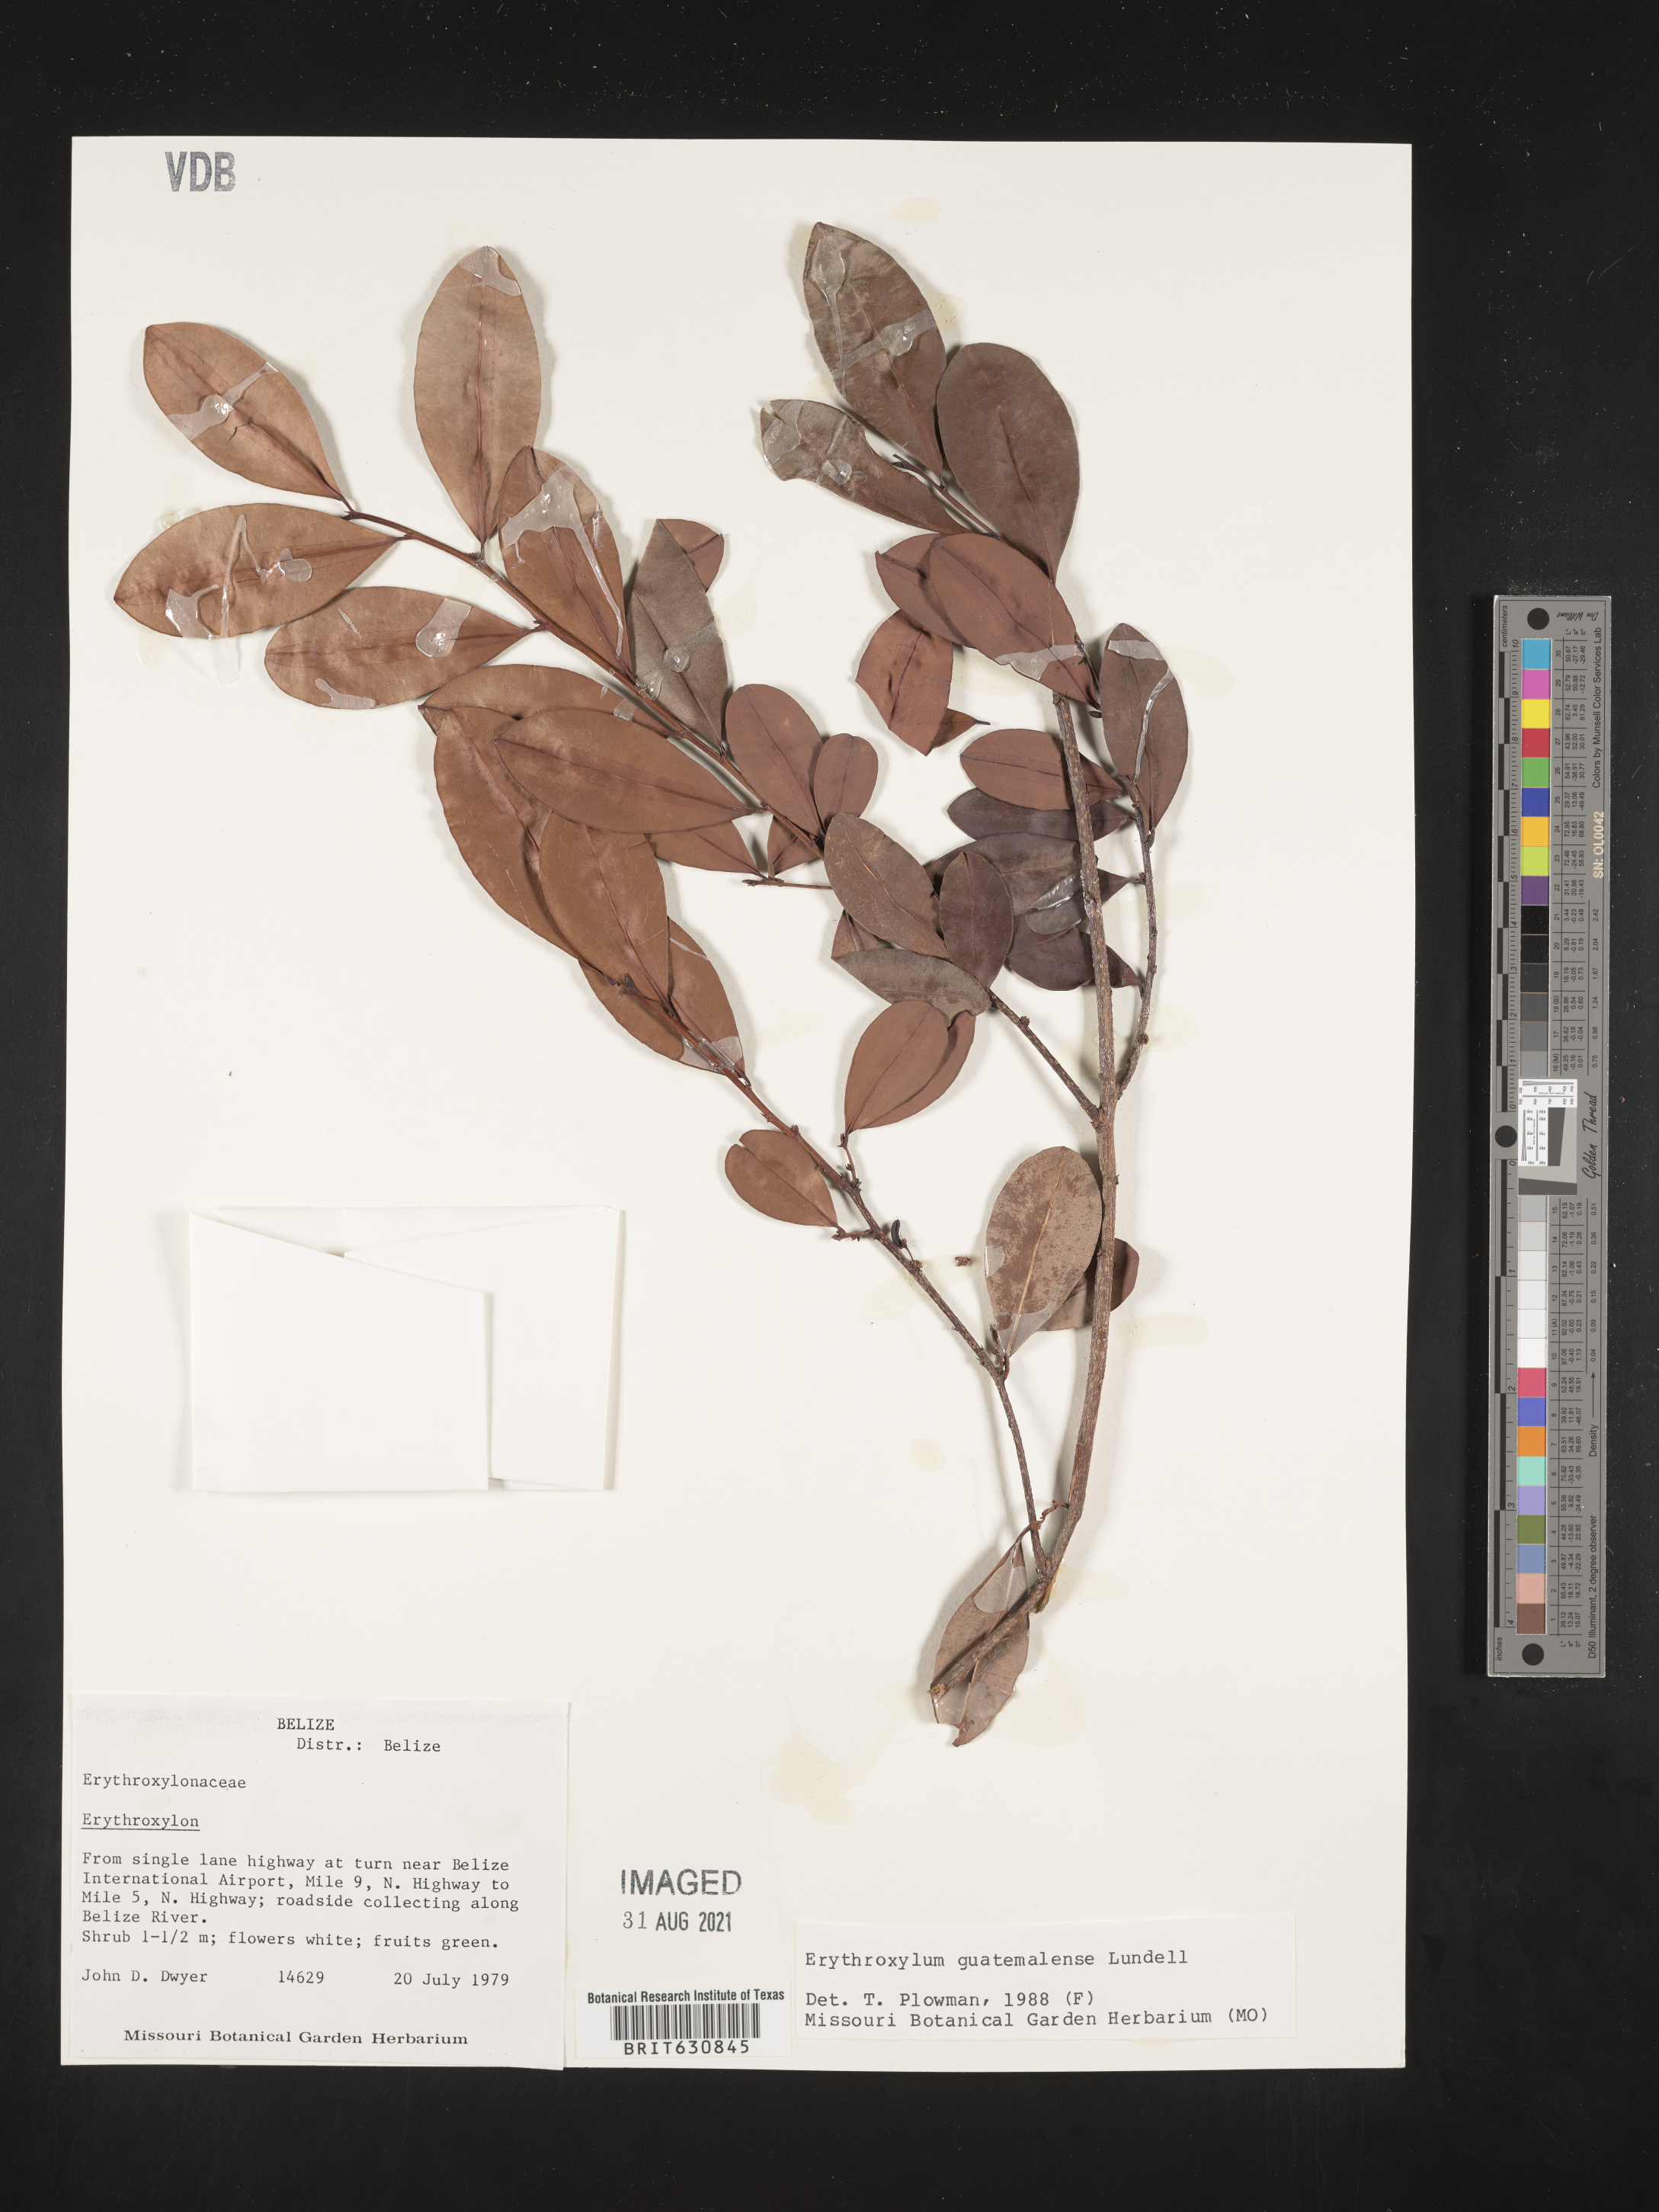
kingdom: Plantae
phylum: Tracheophyta
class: Magnoliopsida
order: Malpighiales
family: Erythroxylaceae
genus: Erythroxylum
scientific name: Erythroxylum
